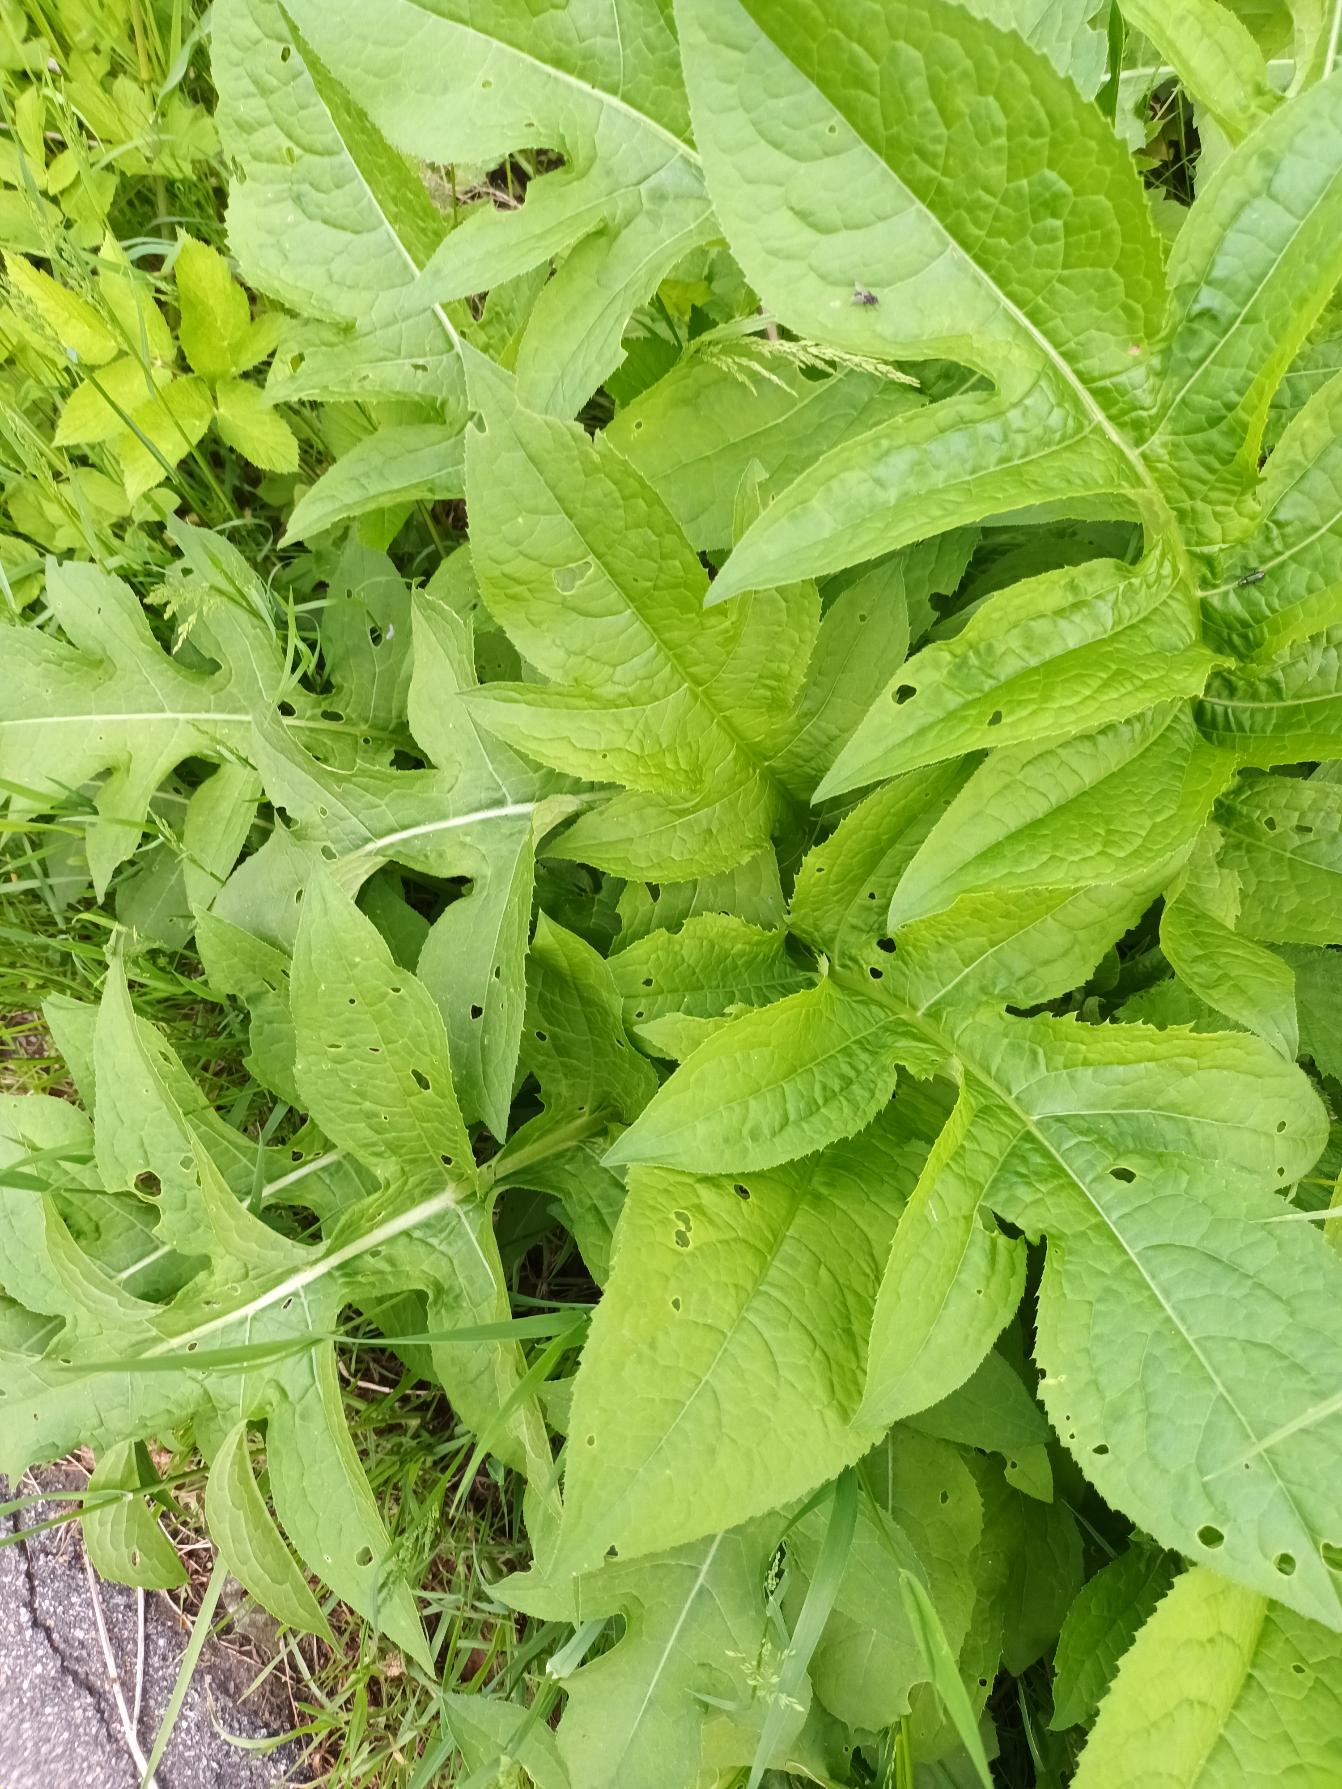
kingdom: Plantae
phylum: Tracheophyta
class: Magnoliopsida
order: Asterales
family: Asteraceae
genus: Cirsium
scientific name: Cirsium oleraceum
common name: Kål-tidsel
